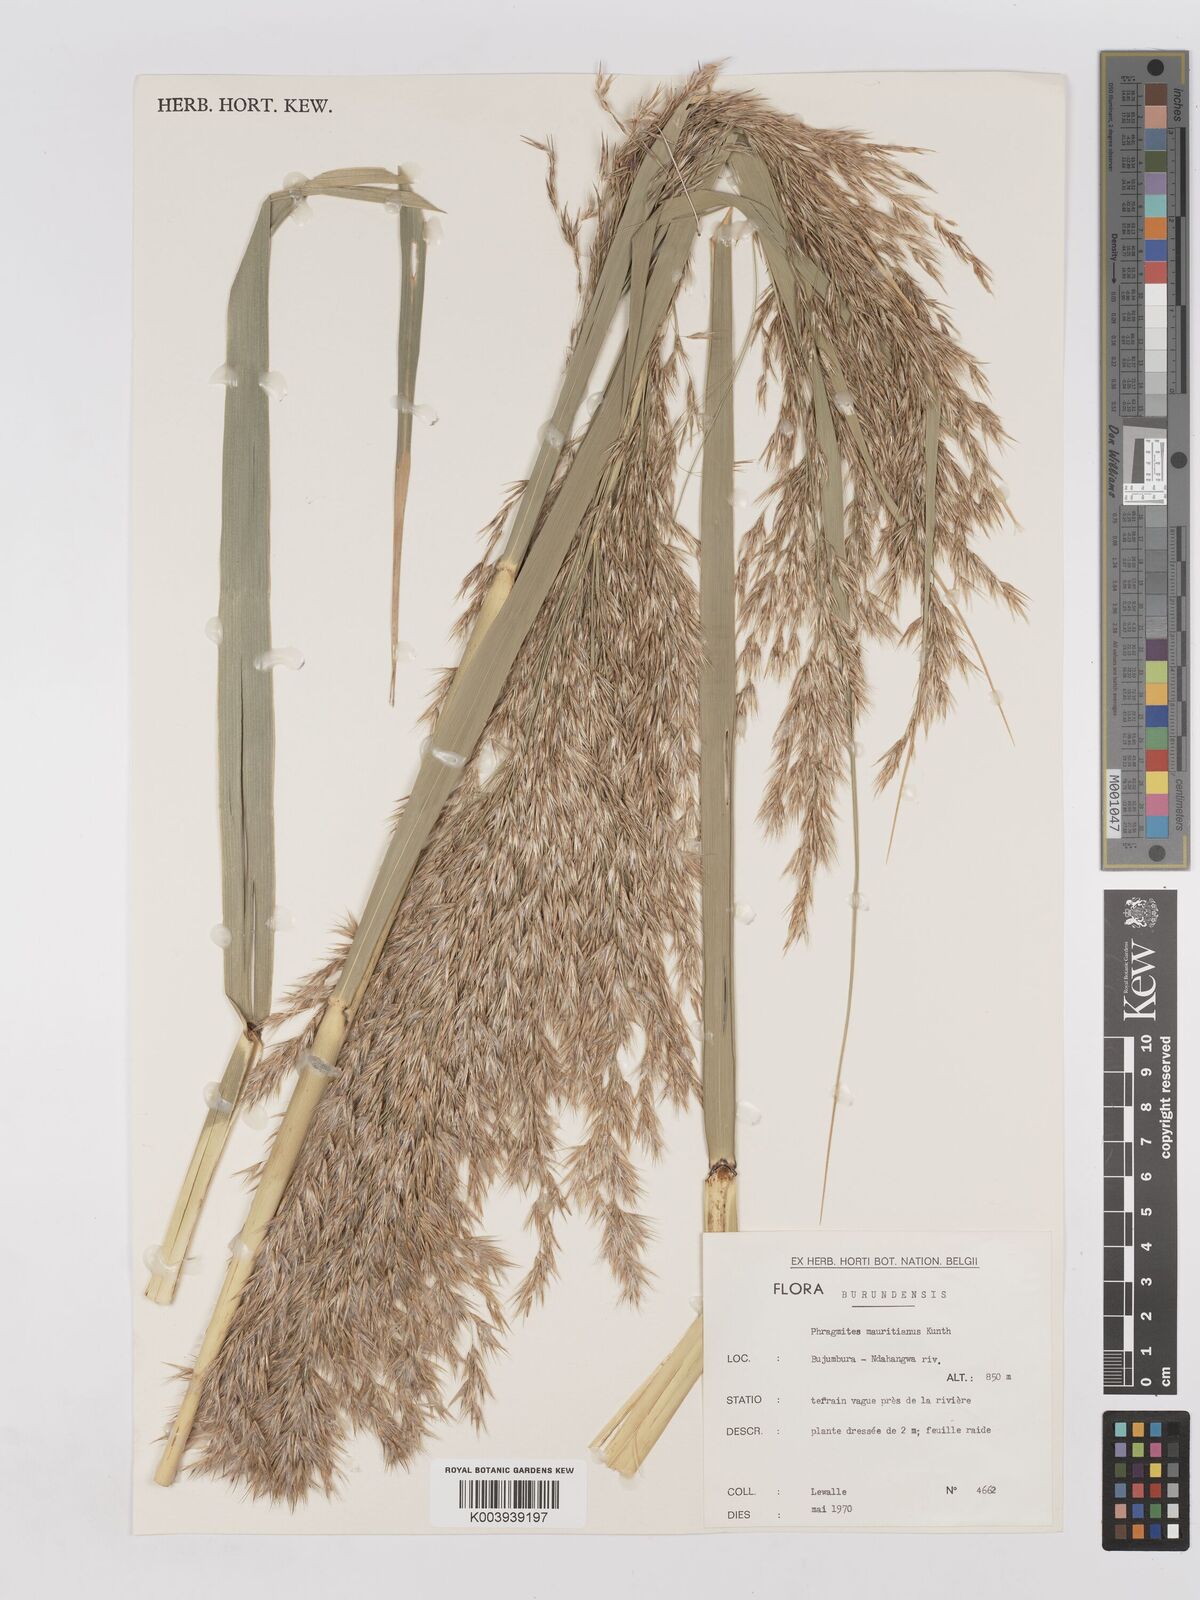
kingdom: Plantae
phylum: Tracheophyta
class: Liliopsida
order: Poales
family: Poaceae
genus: Phragmites
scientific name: Phragmites mauritianus
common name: Reed grass
